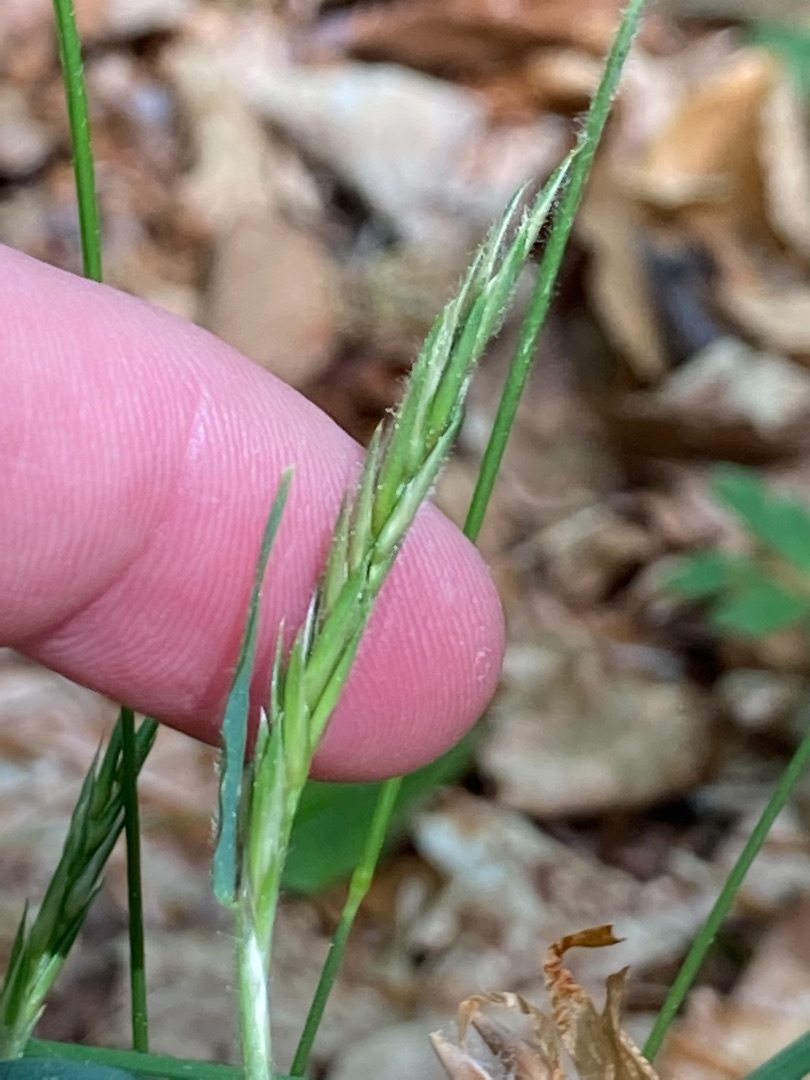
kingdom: Plantae
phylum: Tracheophyta
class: Liliopsida
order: Poales
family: Poaceae
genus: Anthoxanthum
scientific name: Anthoxanthum odoratum
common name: Vellugtende gulaks
